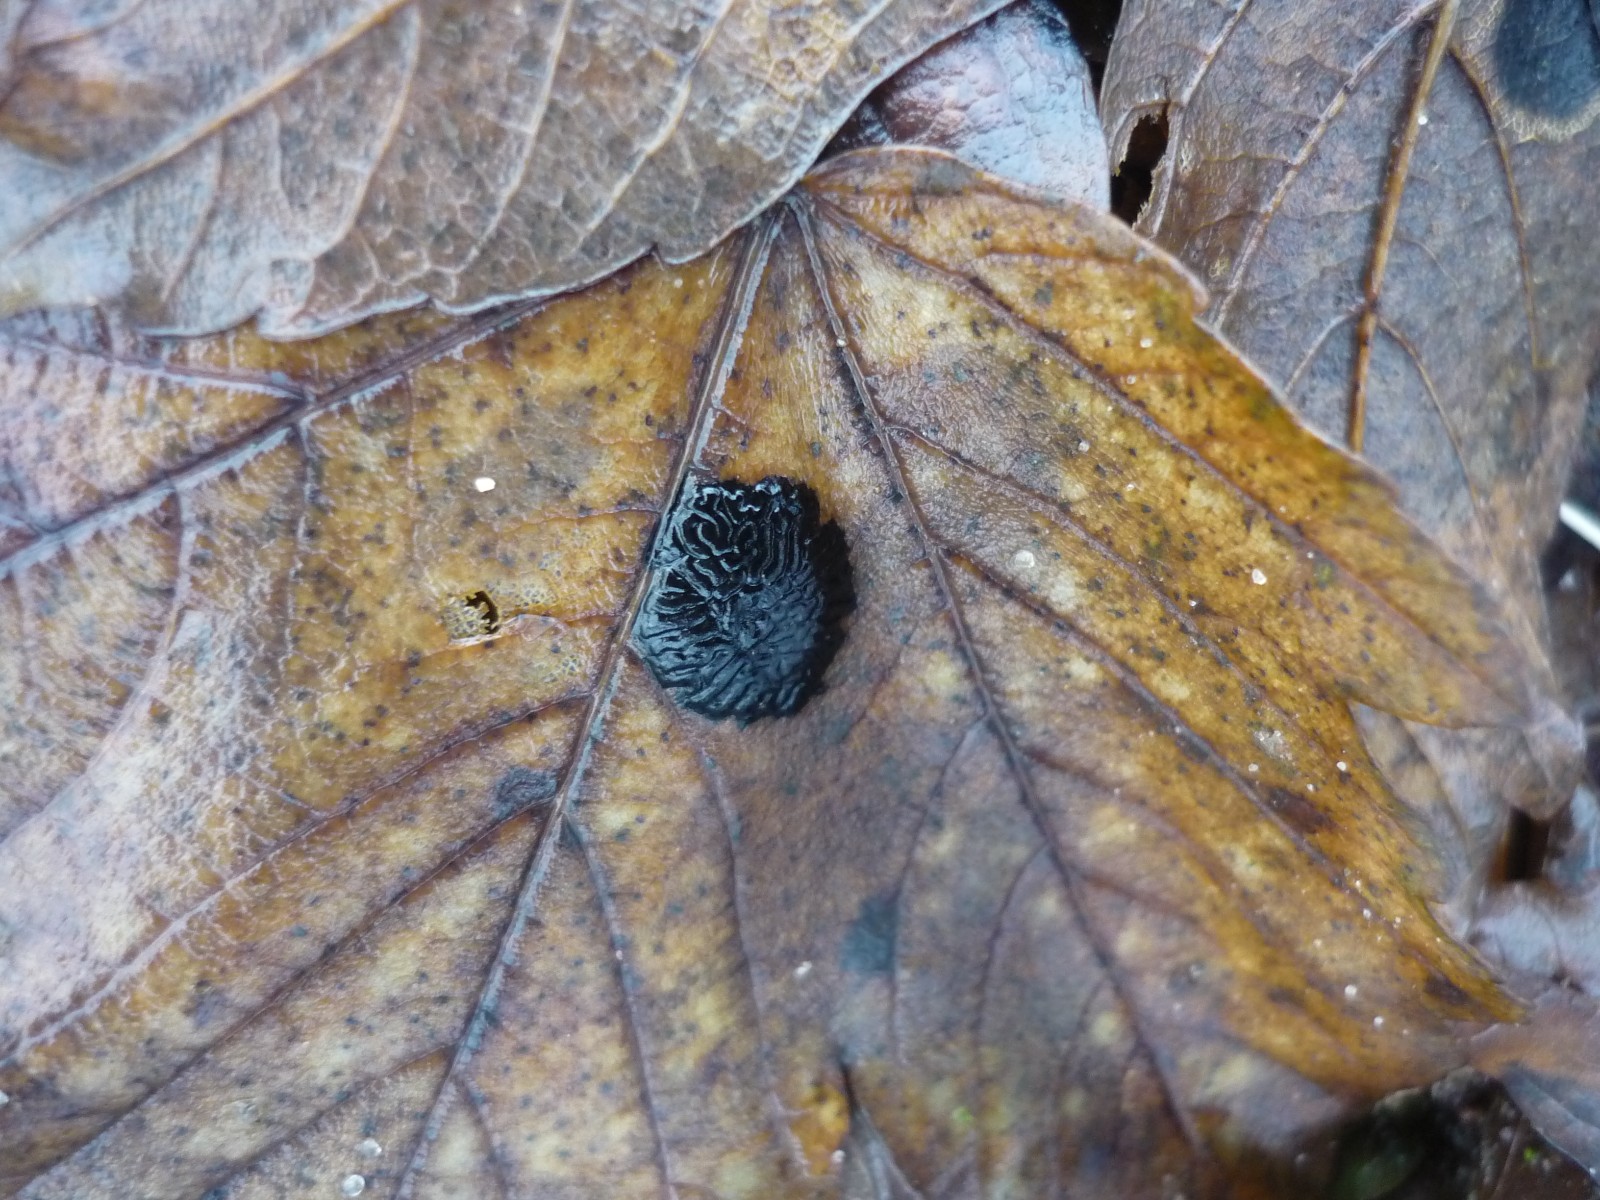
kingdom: Fungi
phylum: Ascomycota
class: Leotiomycetes
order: Rhytismatales
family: Rhytismataceae
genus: Rhytisma
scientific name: Rhytisma acerinum
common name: ahorn-rynkeplet
